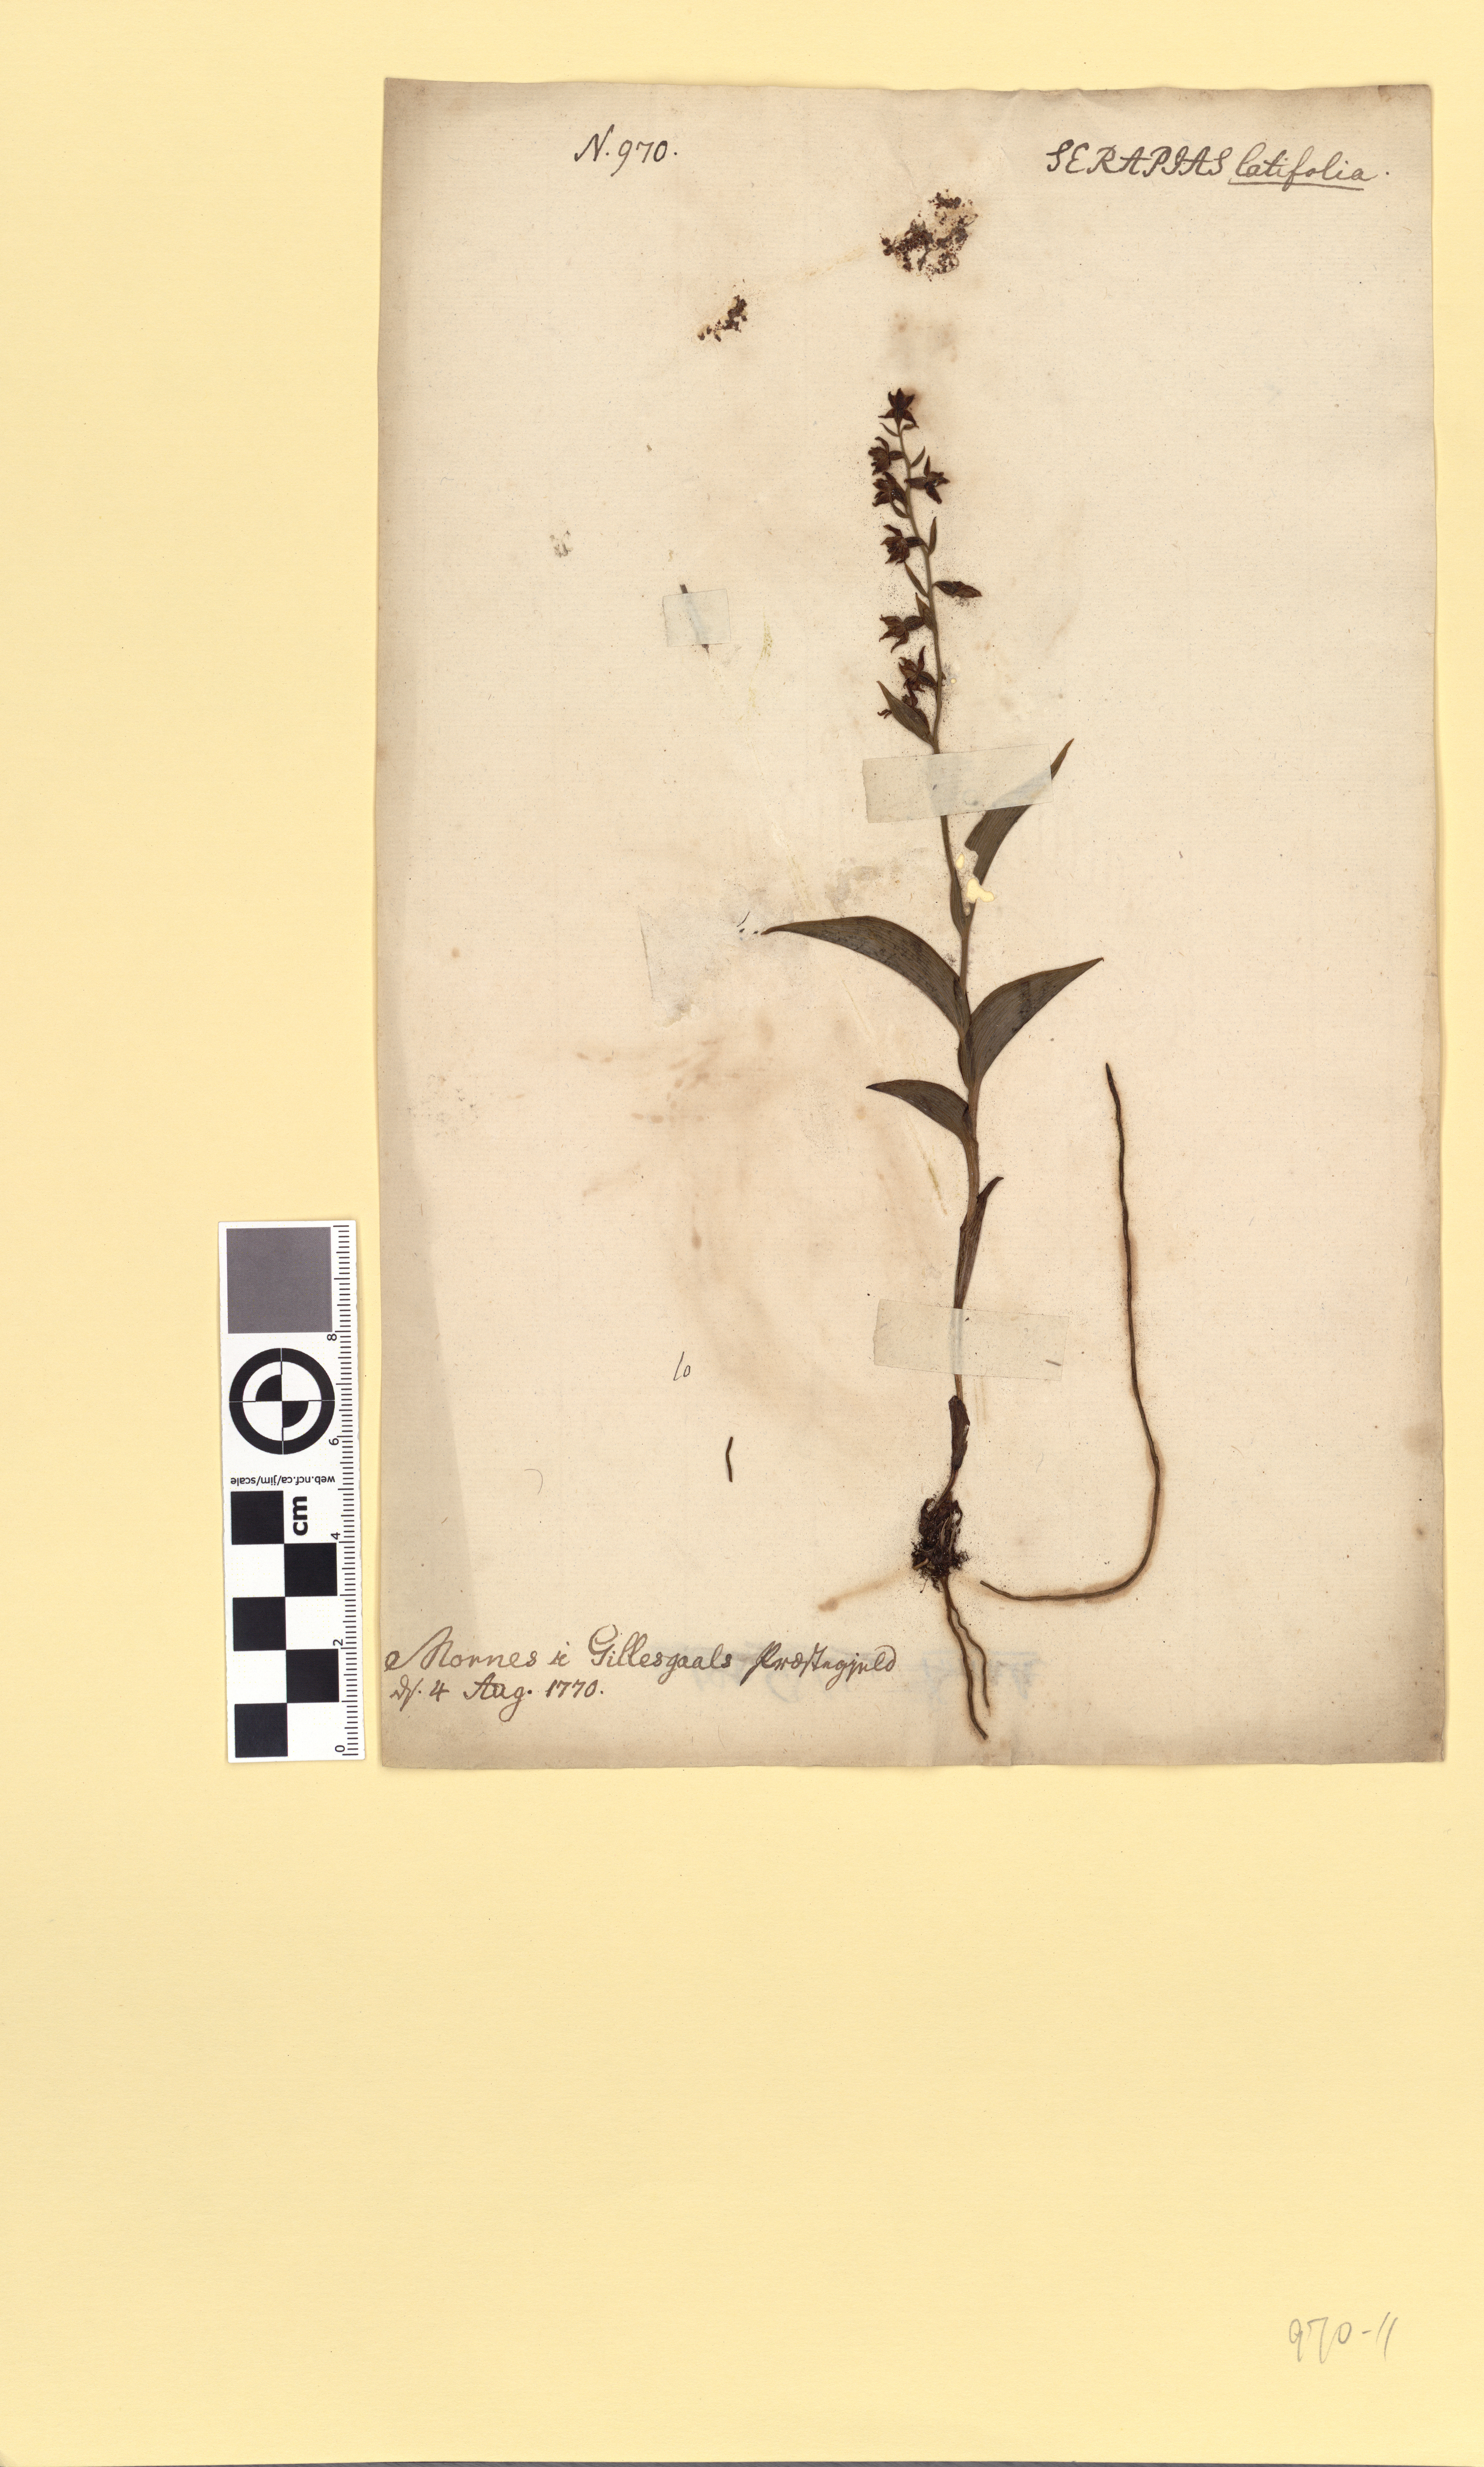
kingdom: Plantae
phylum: Tracheophyta
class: Liliopsida
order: Asparagales
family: Orchidaceae
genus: Epipactis
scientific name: Epipactis helleborine
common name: Broad-leaved helleborine
